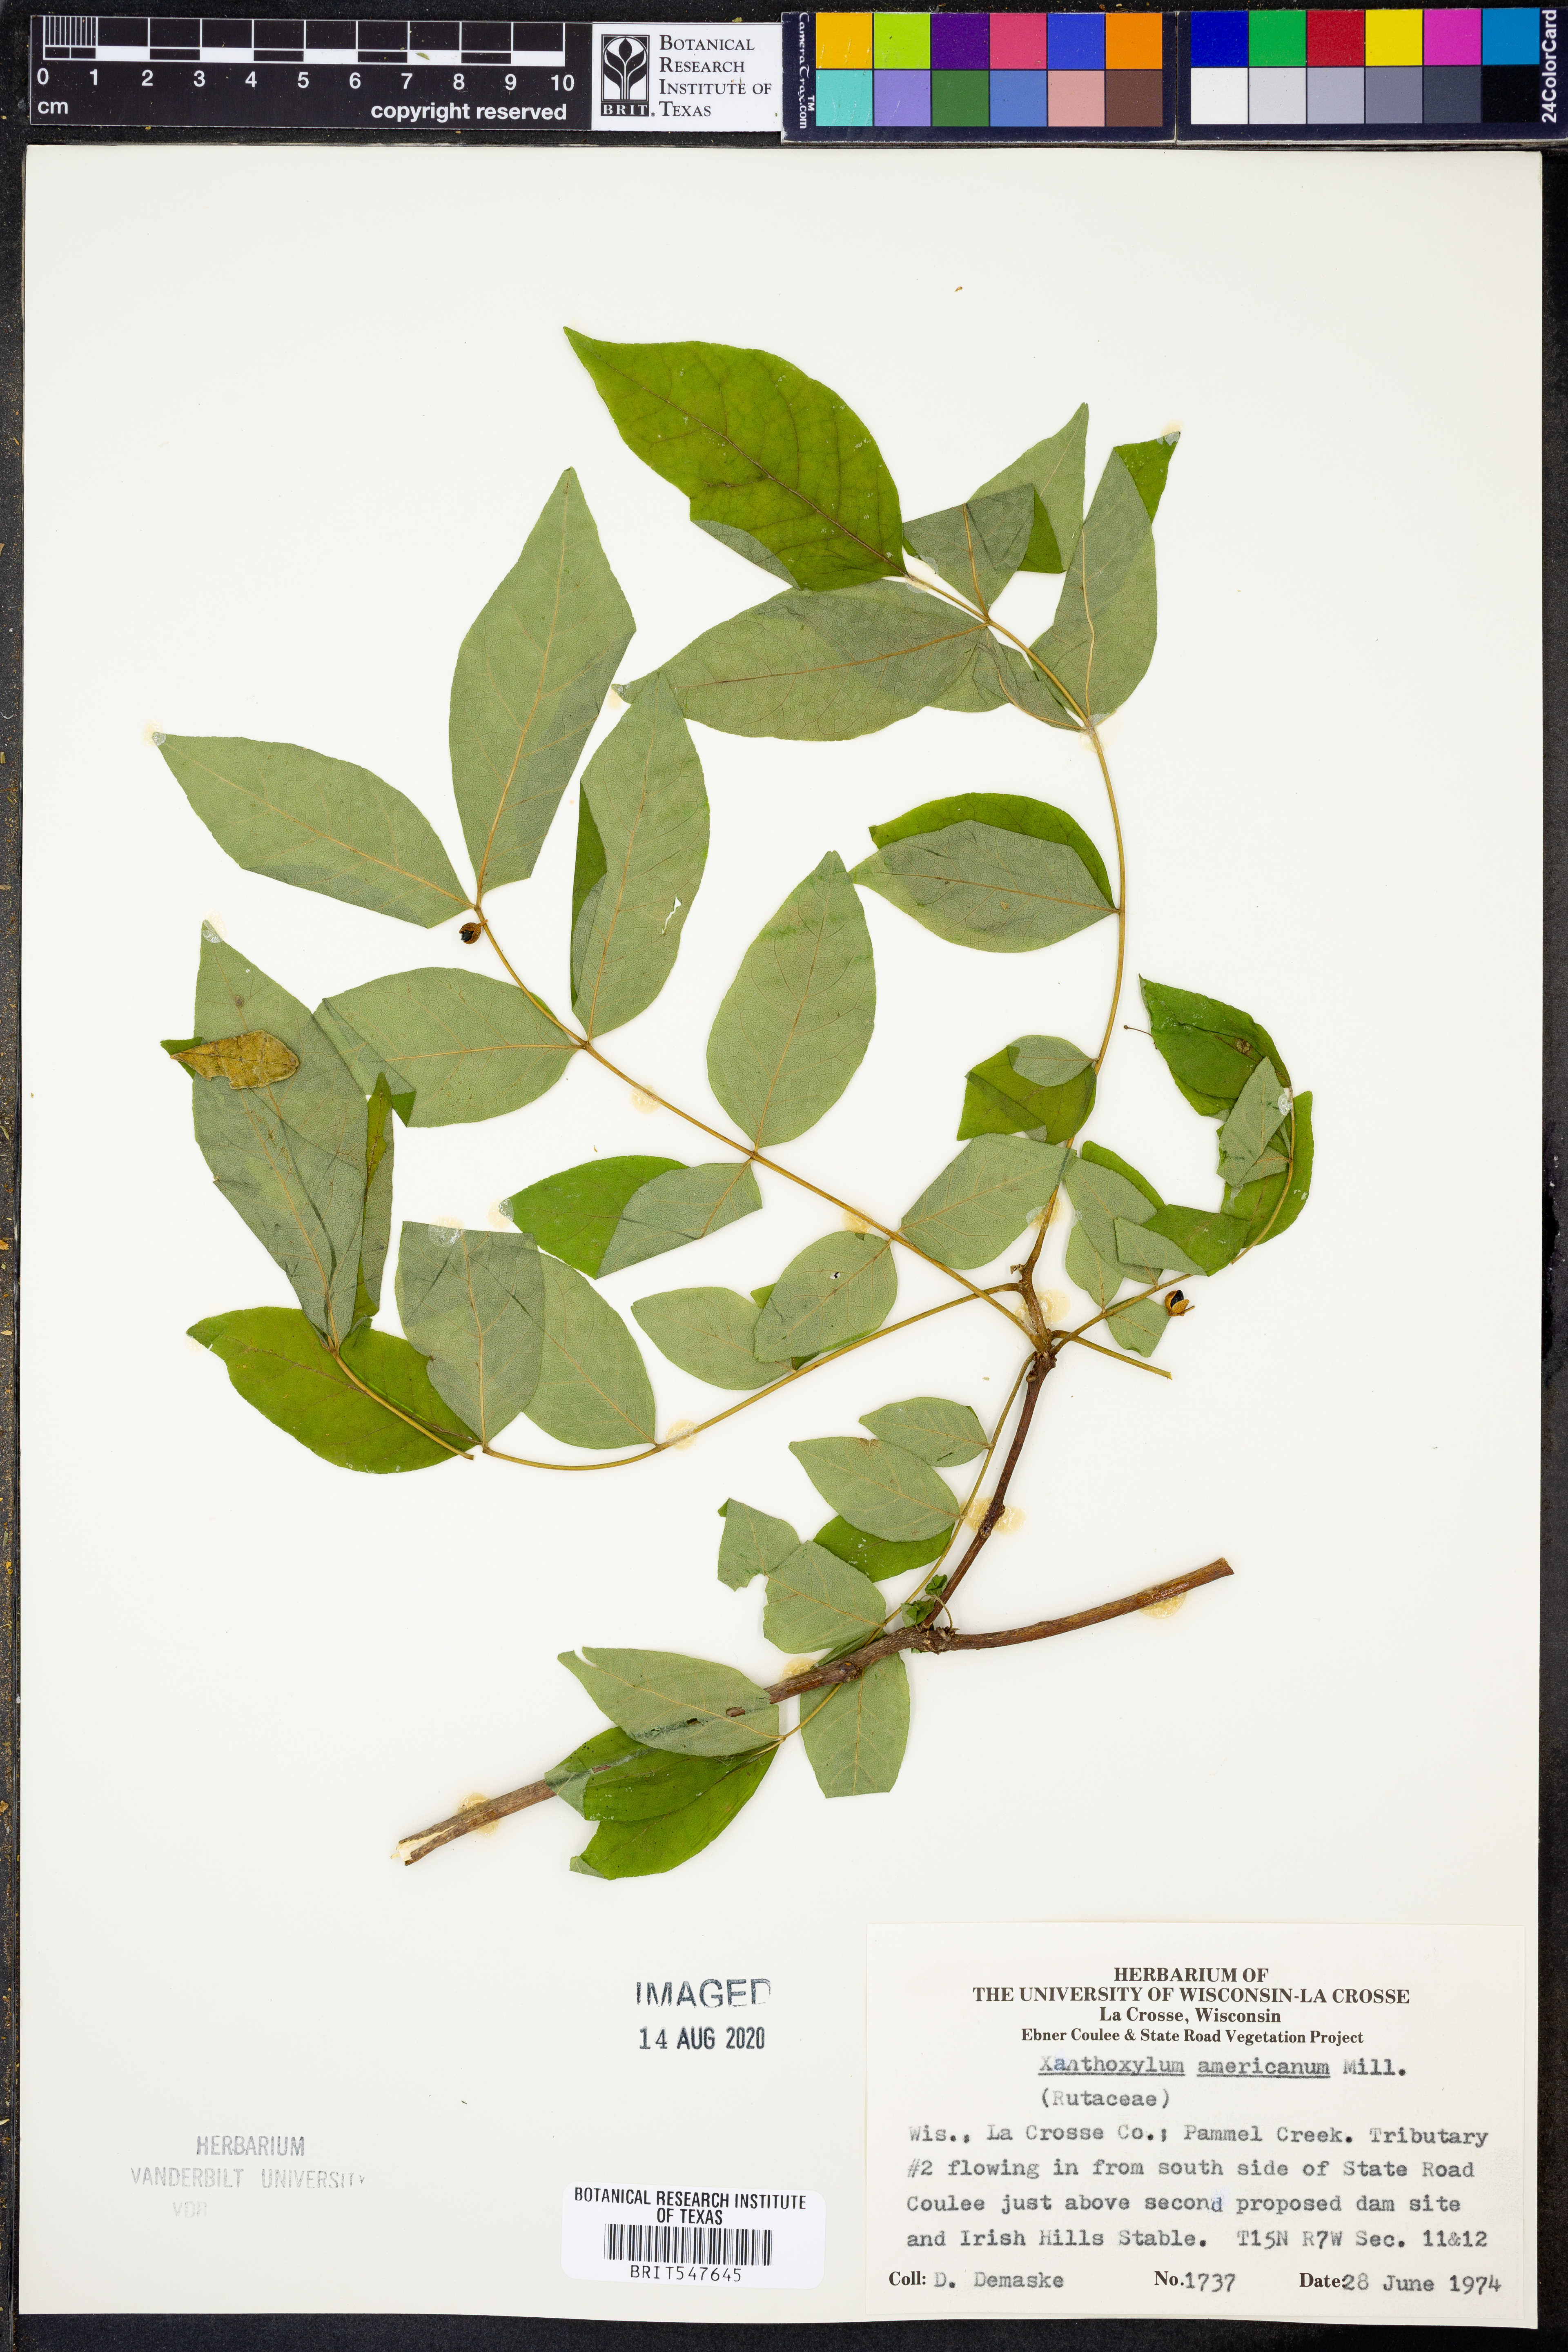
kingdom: Plantae
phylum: Tracheophyta
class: Magnoliopsida
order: Sapindales
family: Rutaceae
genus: Zanthoxylum
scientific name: Zanthoxylum americanum
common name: Northern prickly-ash
